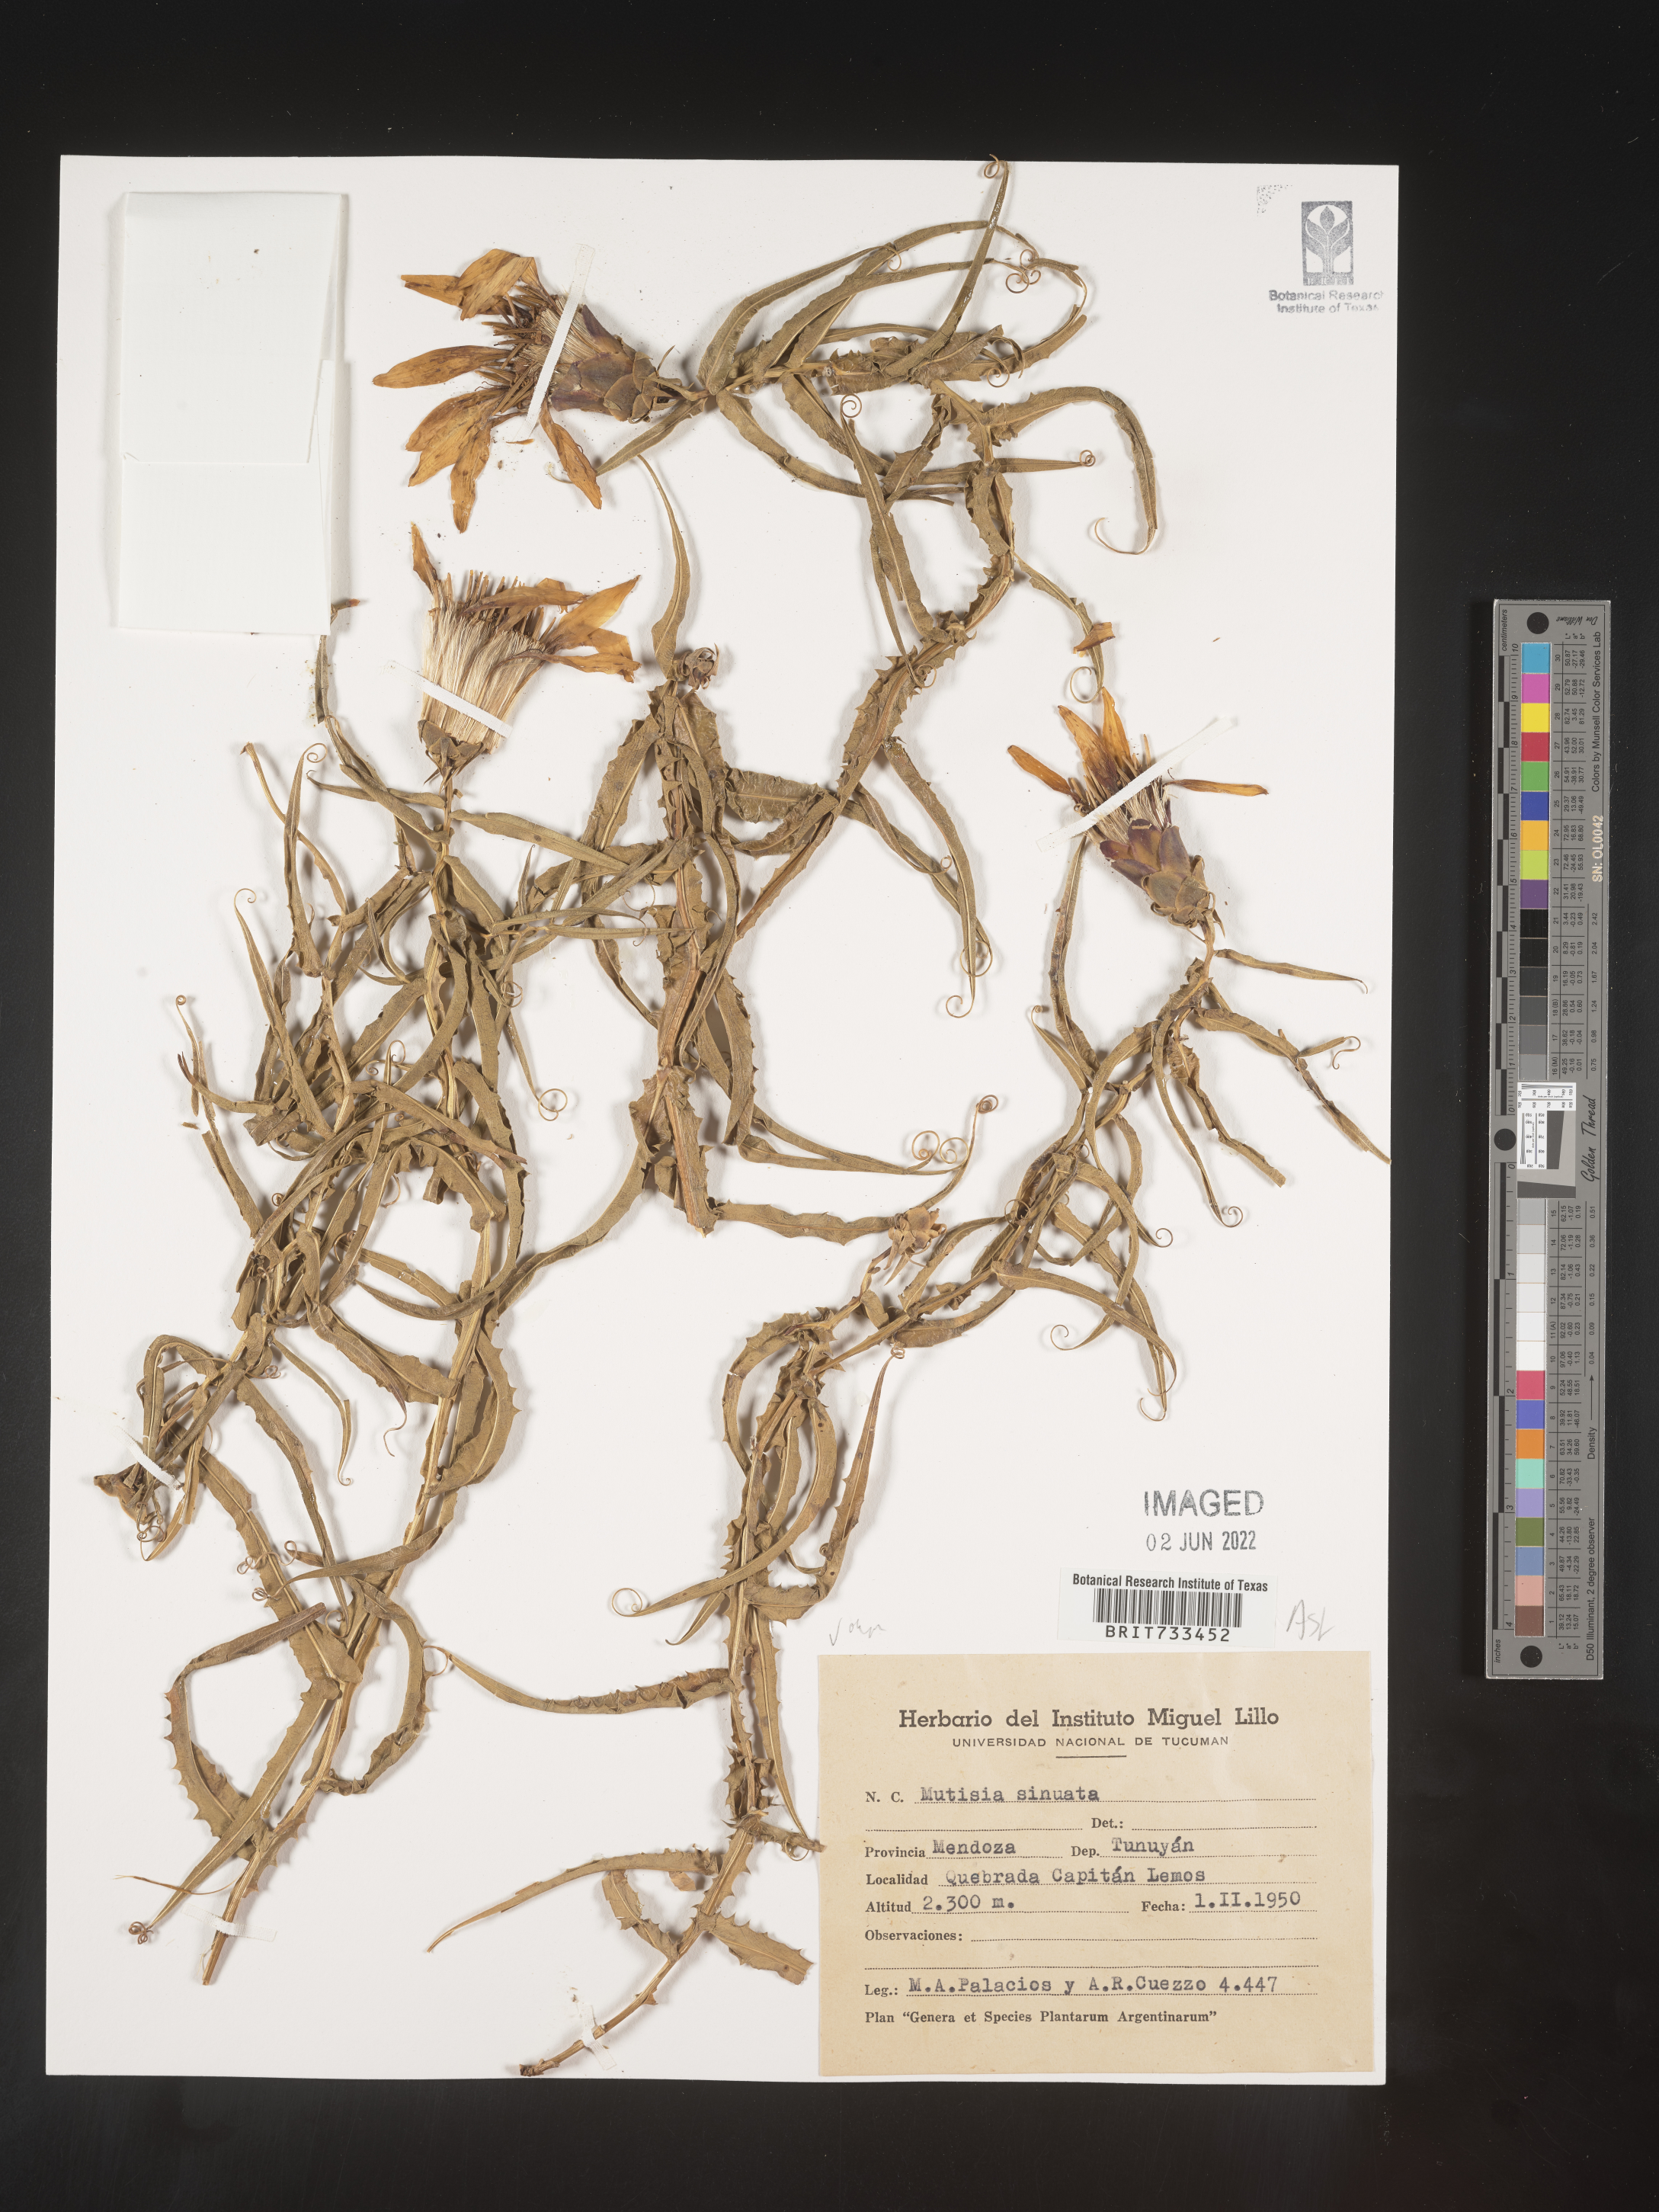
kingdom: Plantae
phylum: Tracheophyta
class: Magnoliopsida
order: Asterales
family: Asteraceae
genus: Mutisia
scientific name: Mutisia
